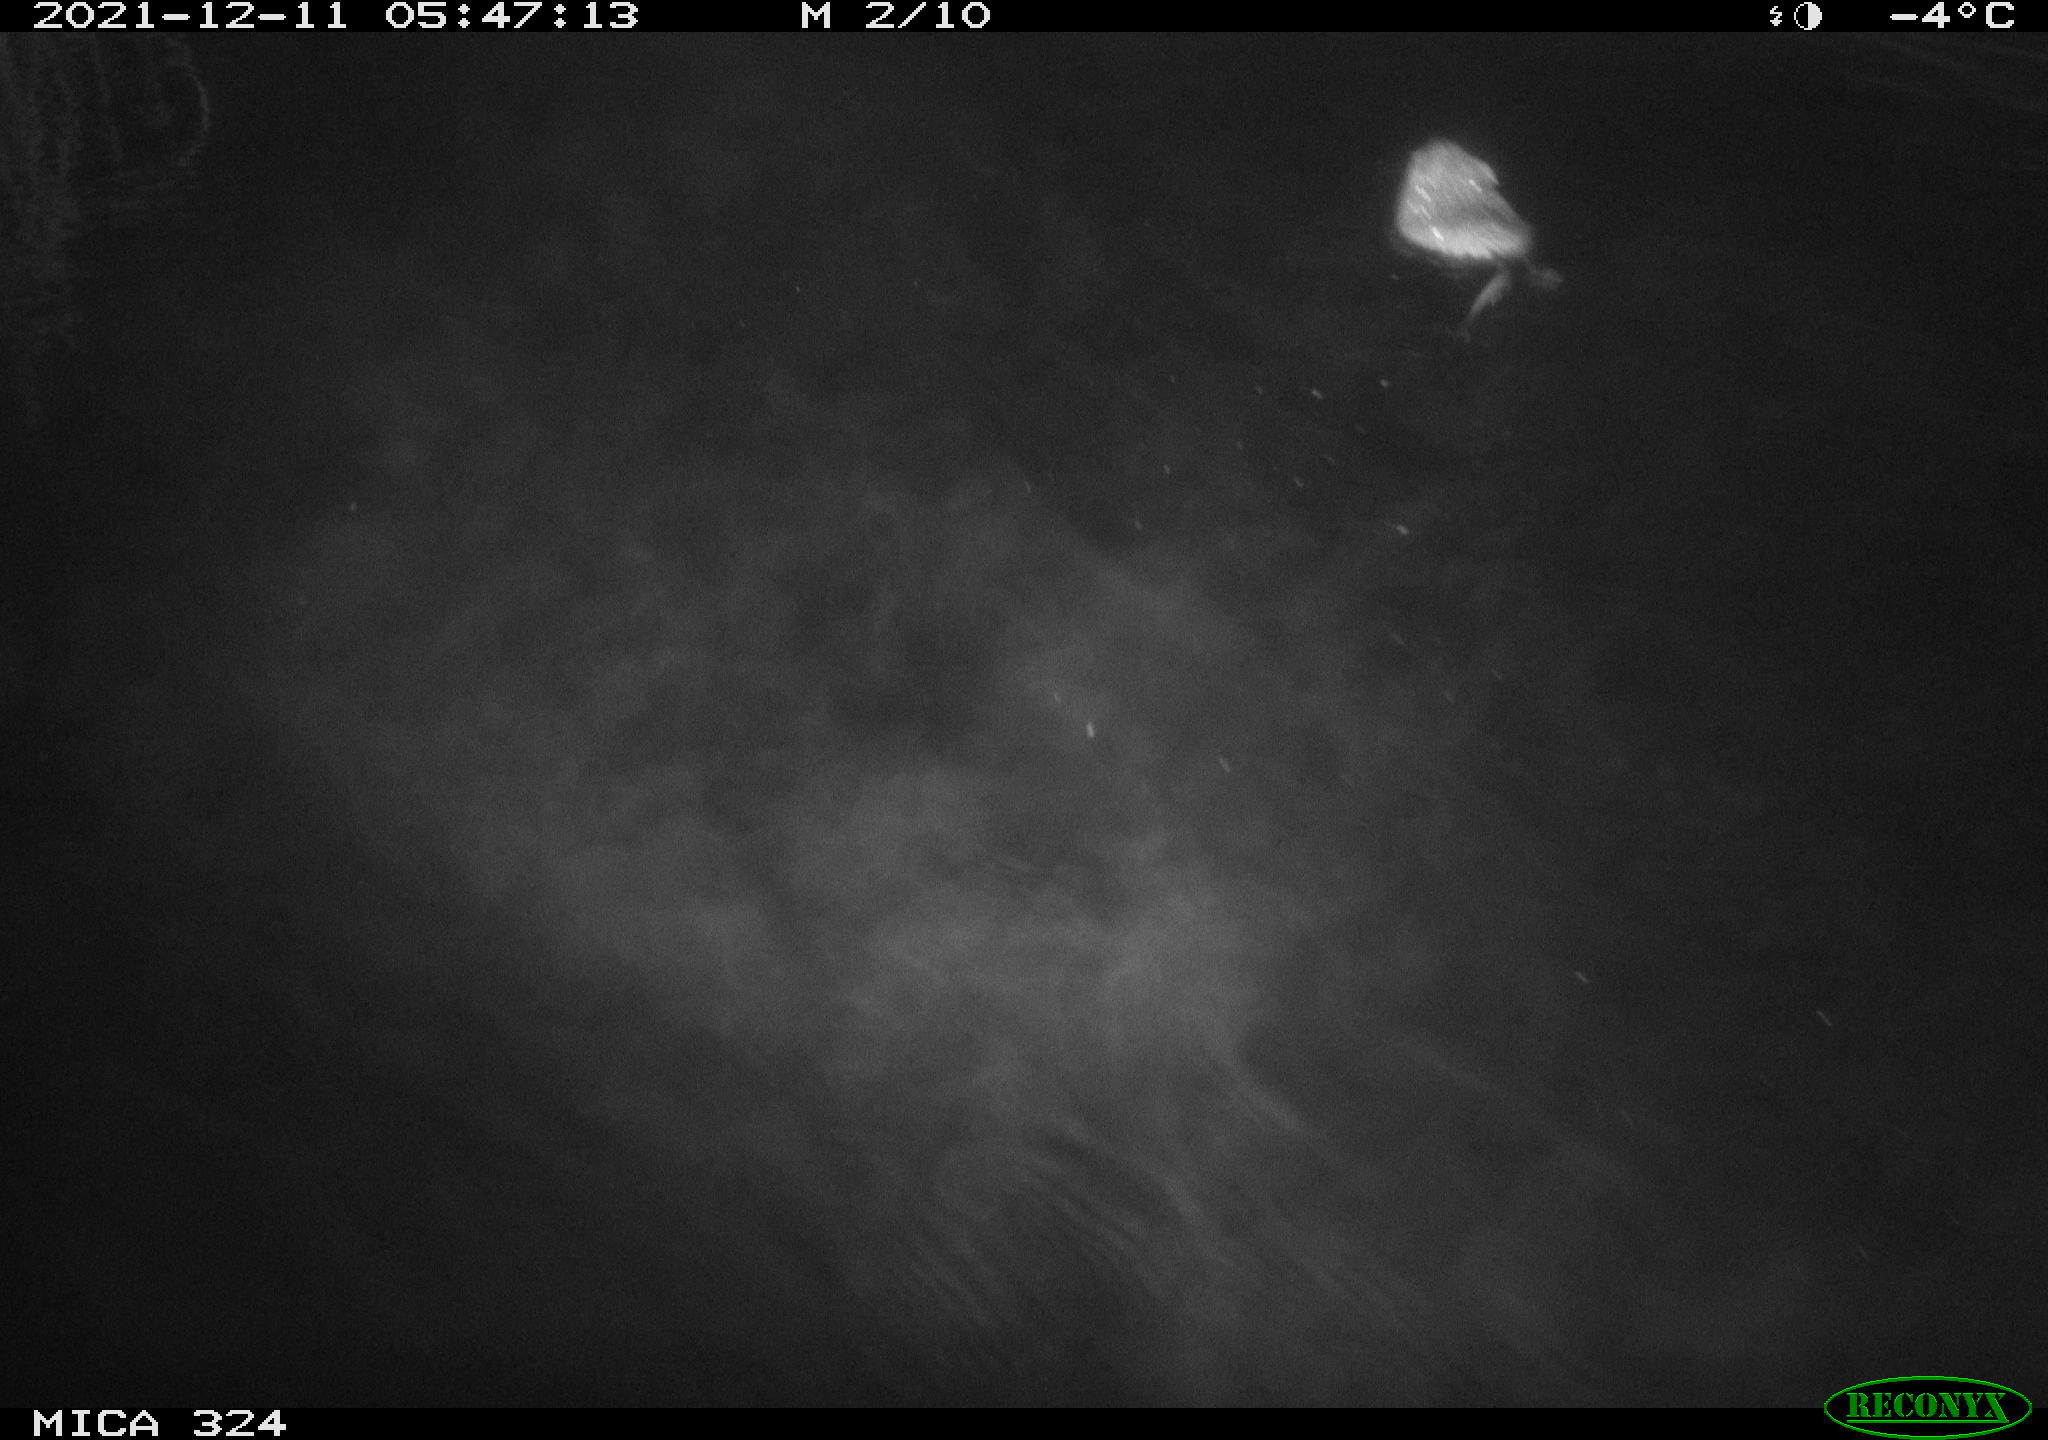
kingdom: Animalia
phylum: Chordata
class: Mammalia
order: Rodentia
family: Cricetidae
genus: Ondatra
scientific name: Ondatra zibethicus
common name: Muskrat
